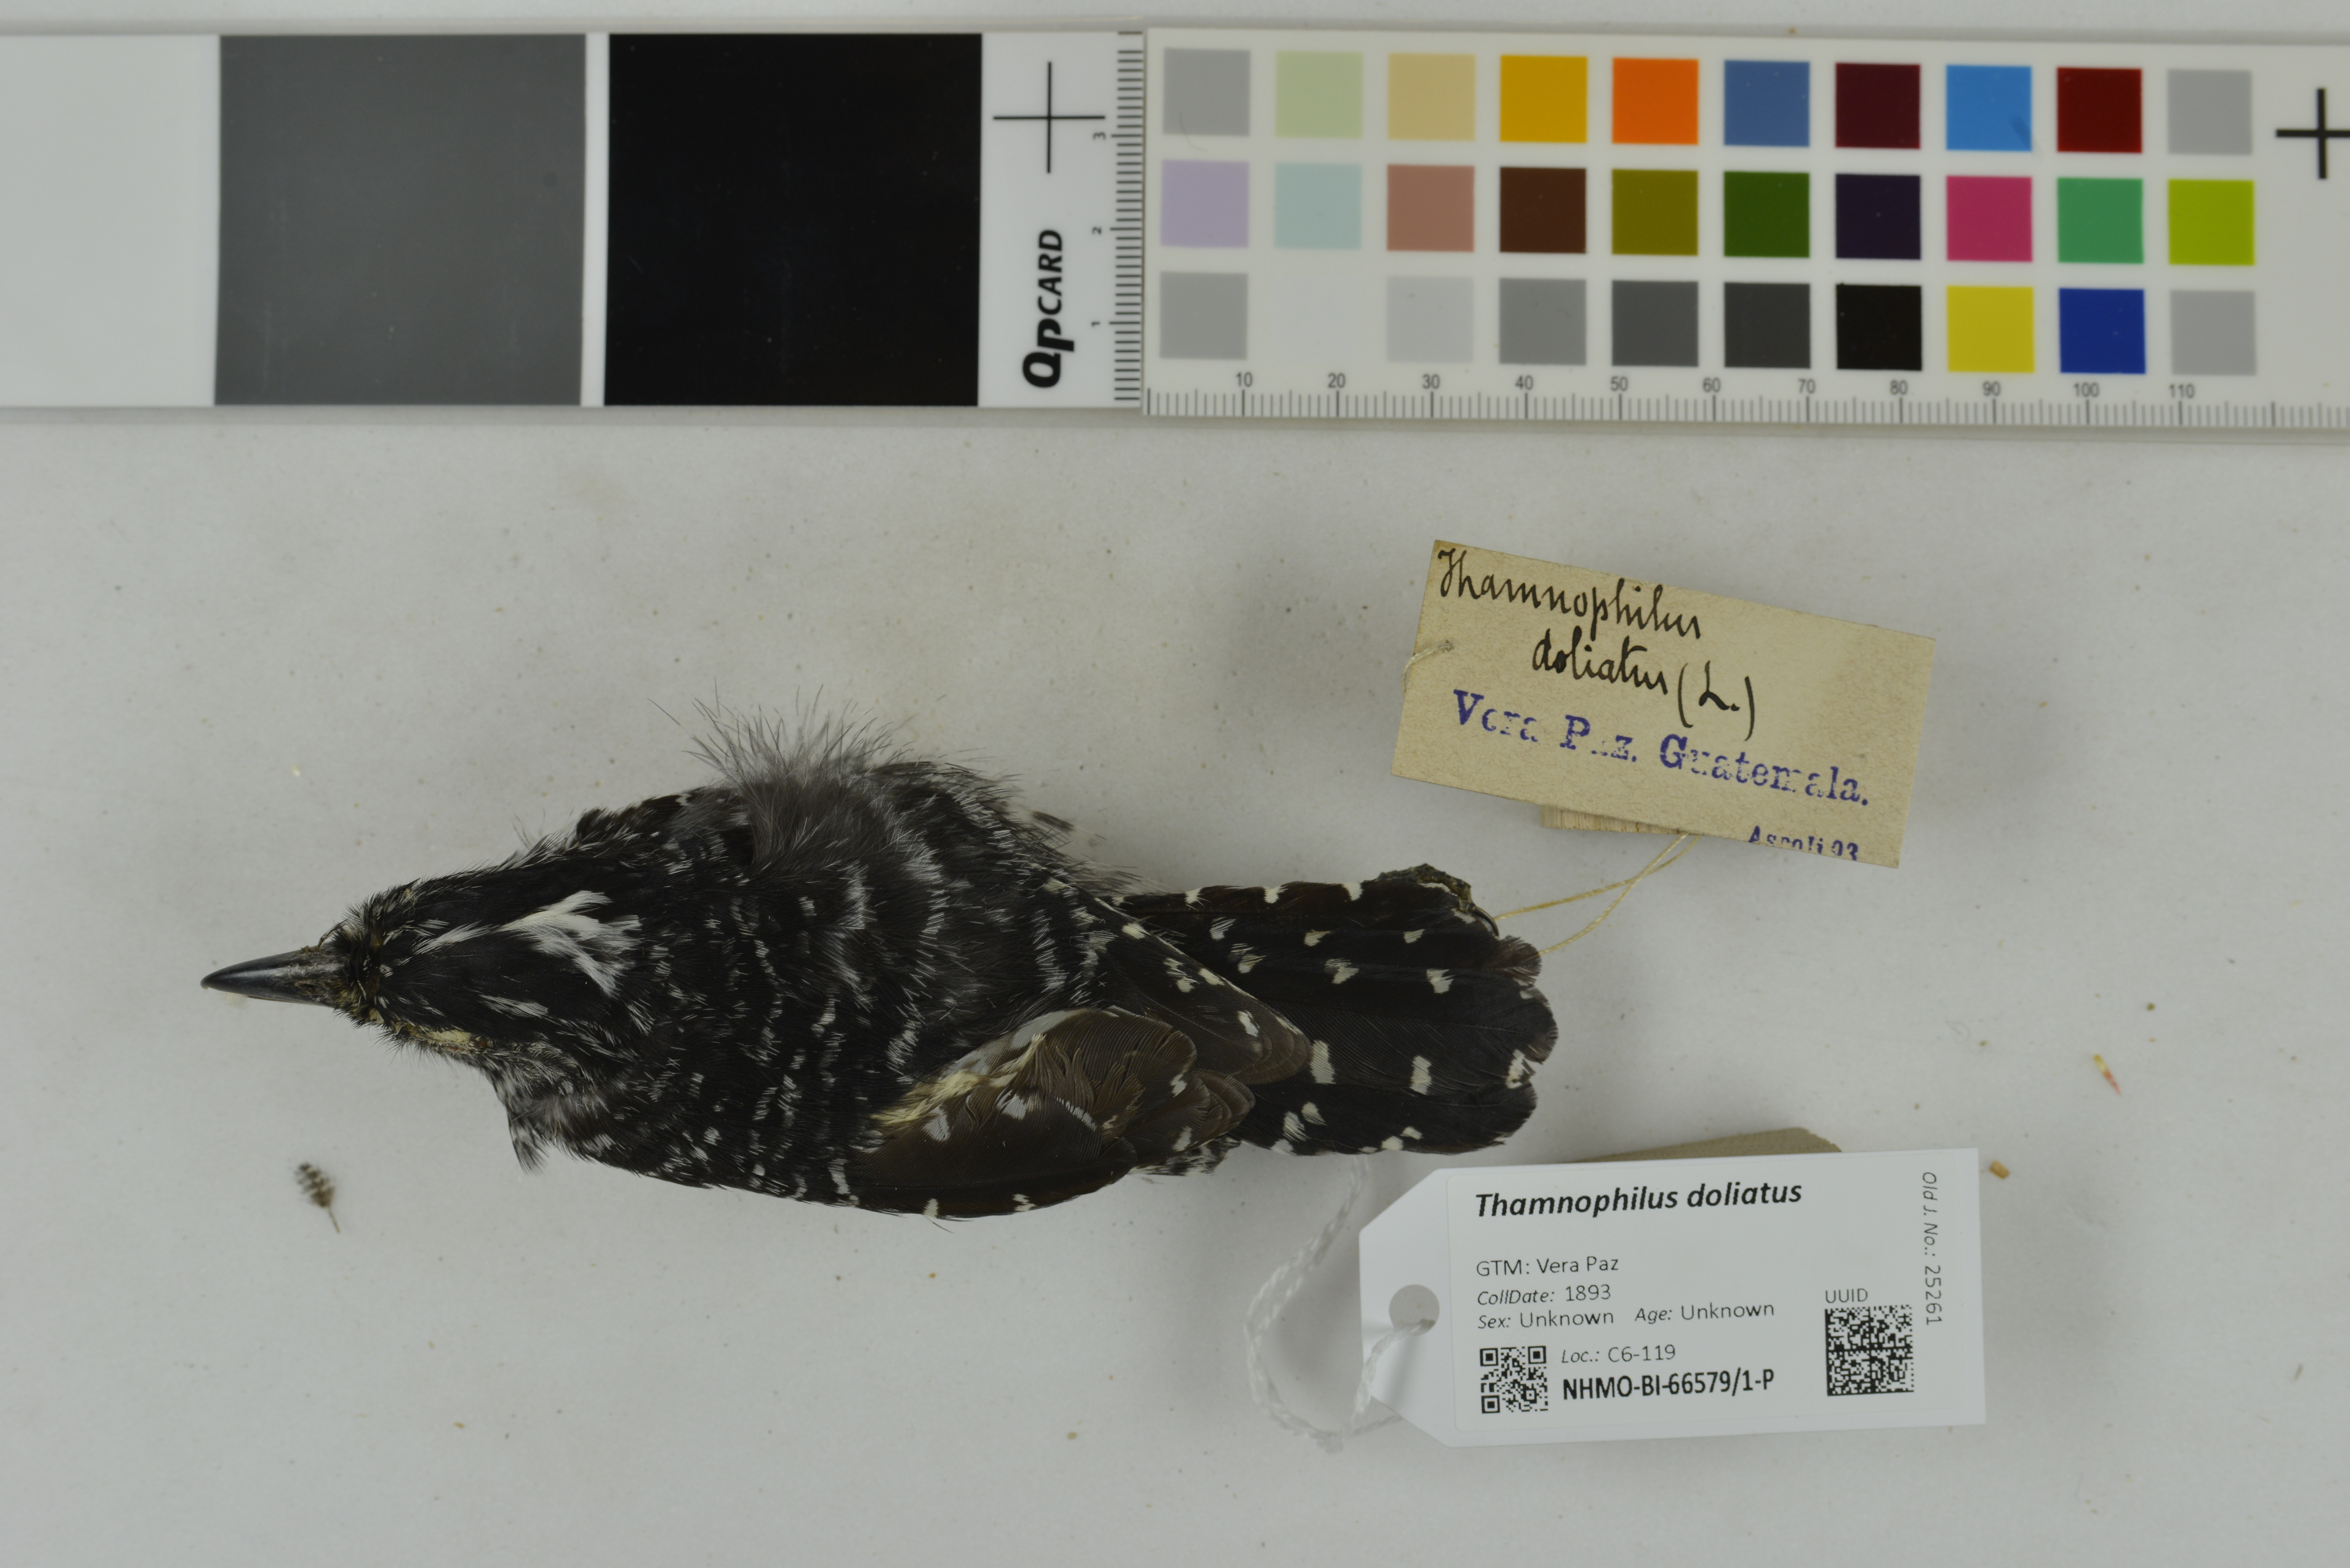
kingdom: Animalia
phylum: Chordata
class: Aves
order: Passeriformes
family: Thamnophilidae
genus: Thamnophilus
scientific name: Thamnophilus doliatus
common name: Barred antshrike
